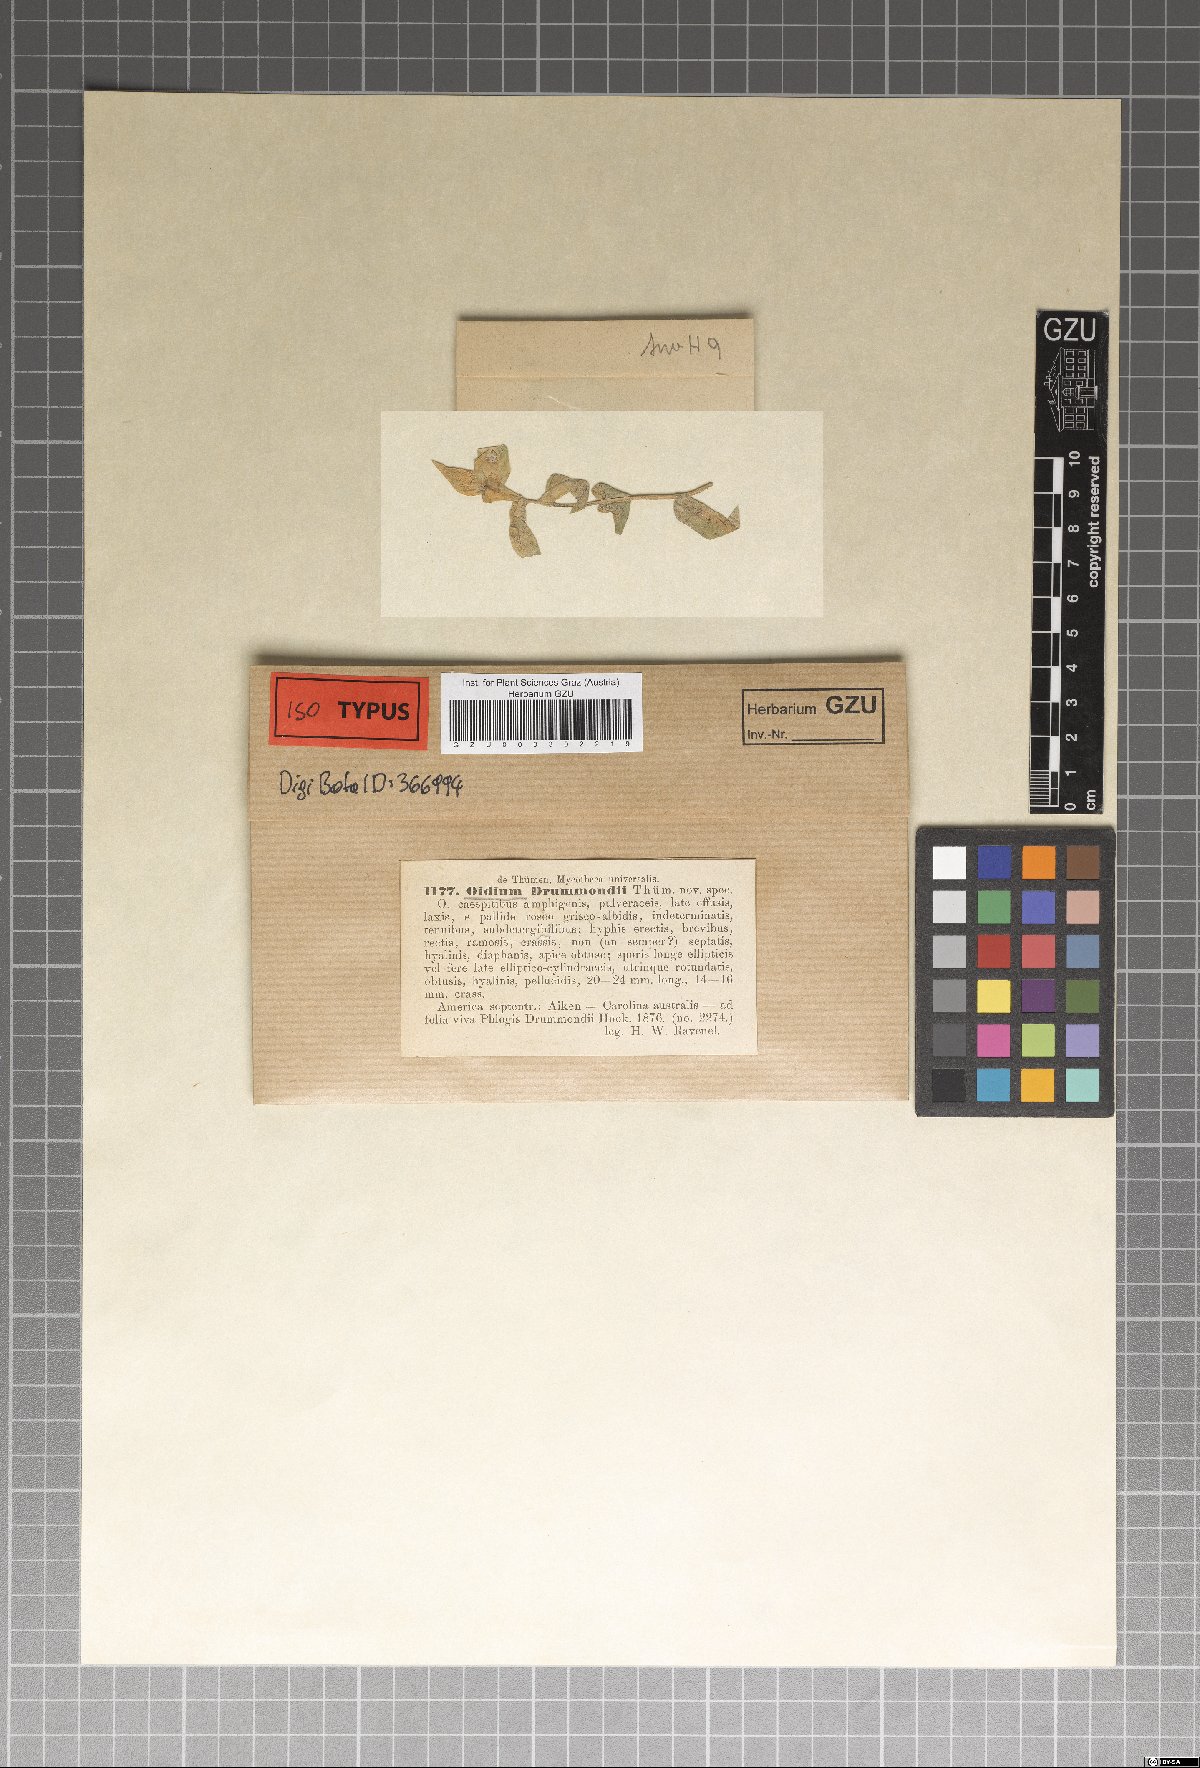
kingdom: Fungi
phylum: Ascomycota
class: Leotiomycetes
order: Helotiales
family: Erysiphaceae
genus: Golovinomyces
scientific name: Golovinomyces magnicellulatus
